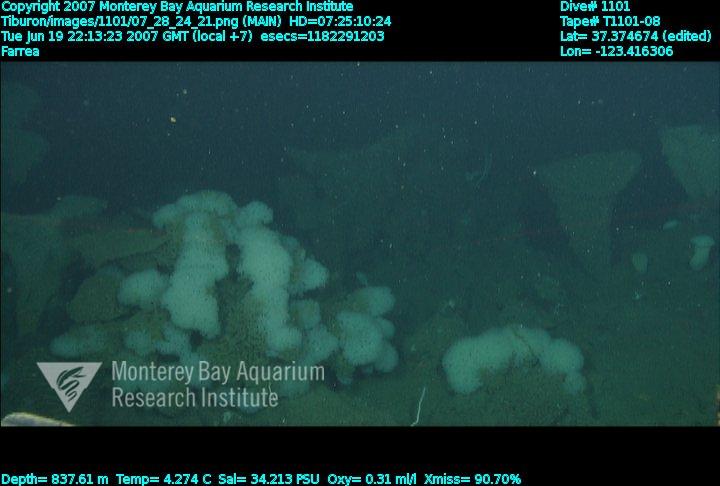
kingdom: Animalia
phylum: Porifera
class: Hexactinellida
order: Sceptrulophora
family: Farreidae
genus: Farrea
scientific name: Farrea
